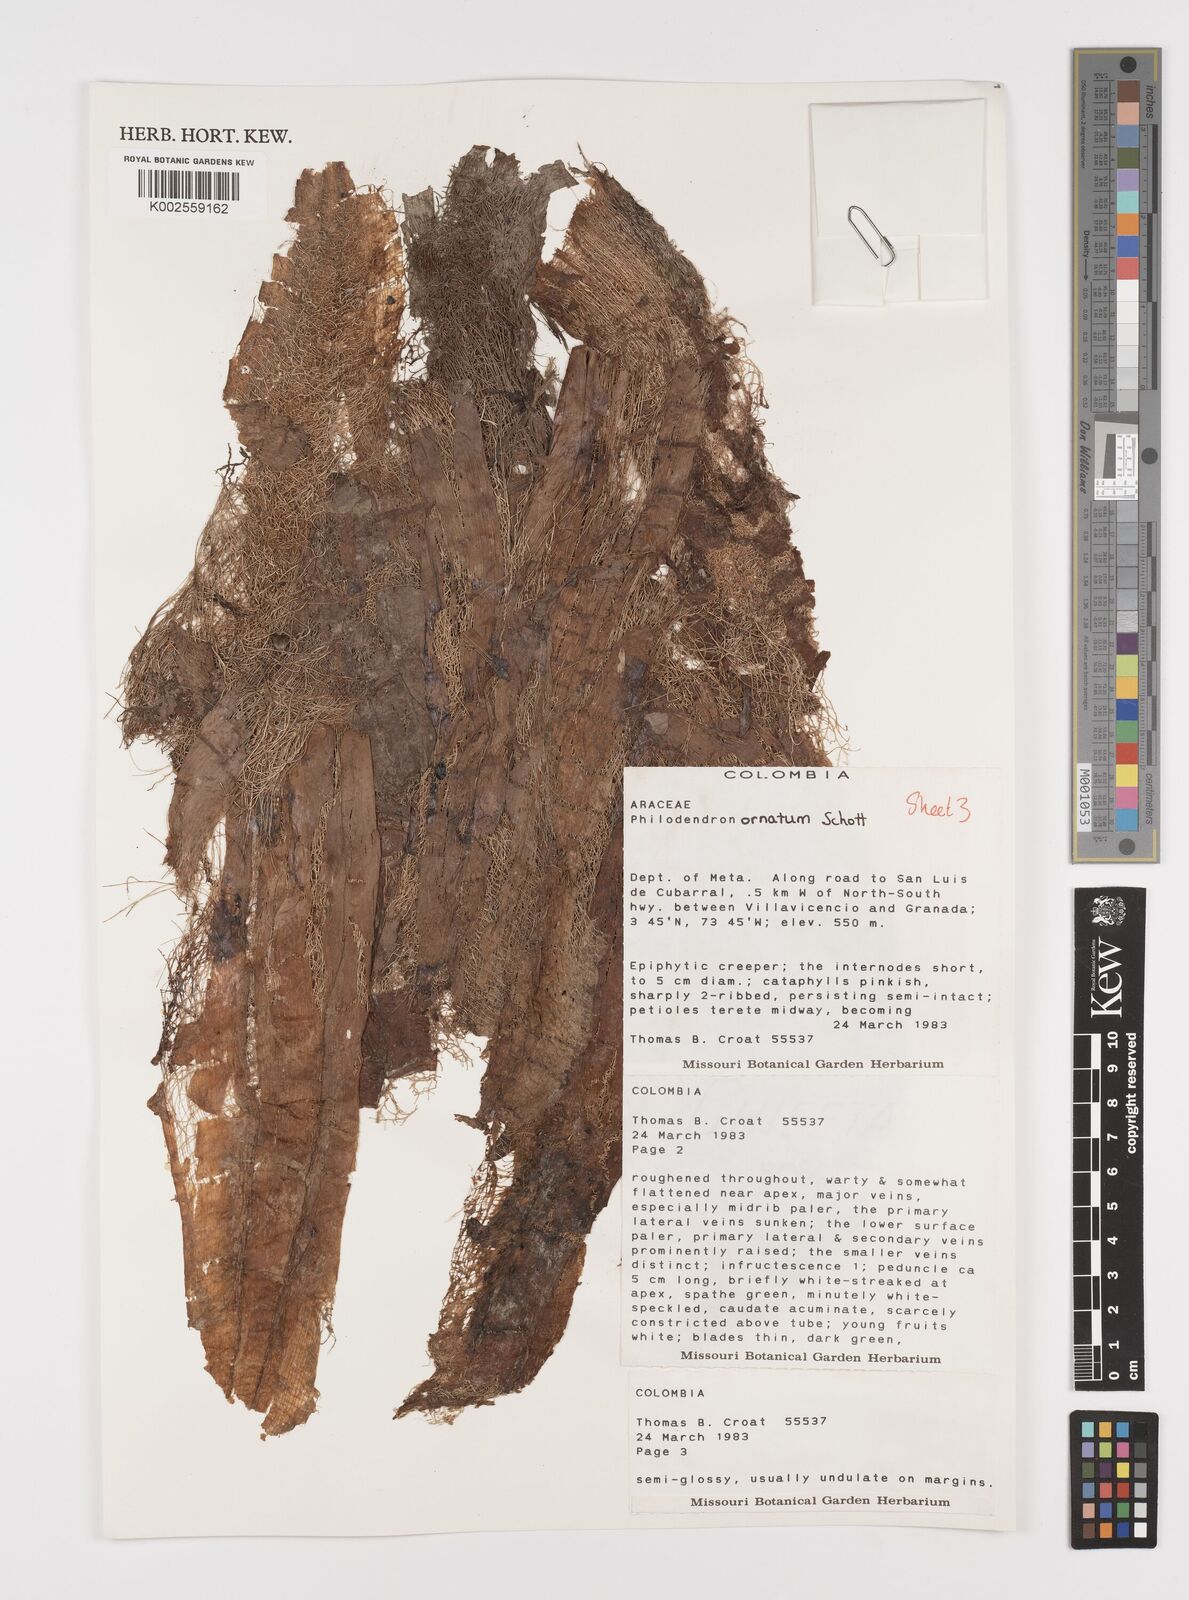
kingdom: Plantae
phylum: Tracheophyta
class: Liliopsida
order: Alismatales
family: Araceae
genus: Philodendron
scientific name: Philodendron ornatum
